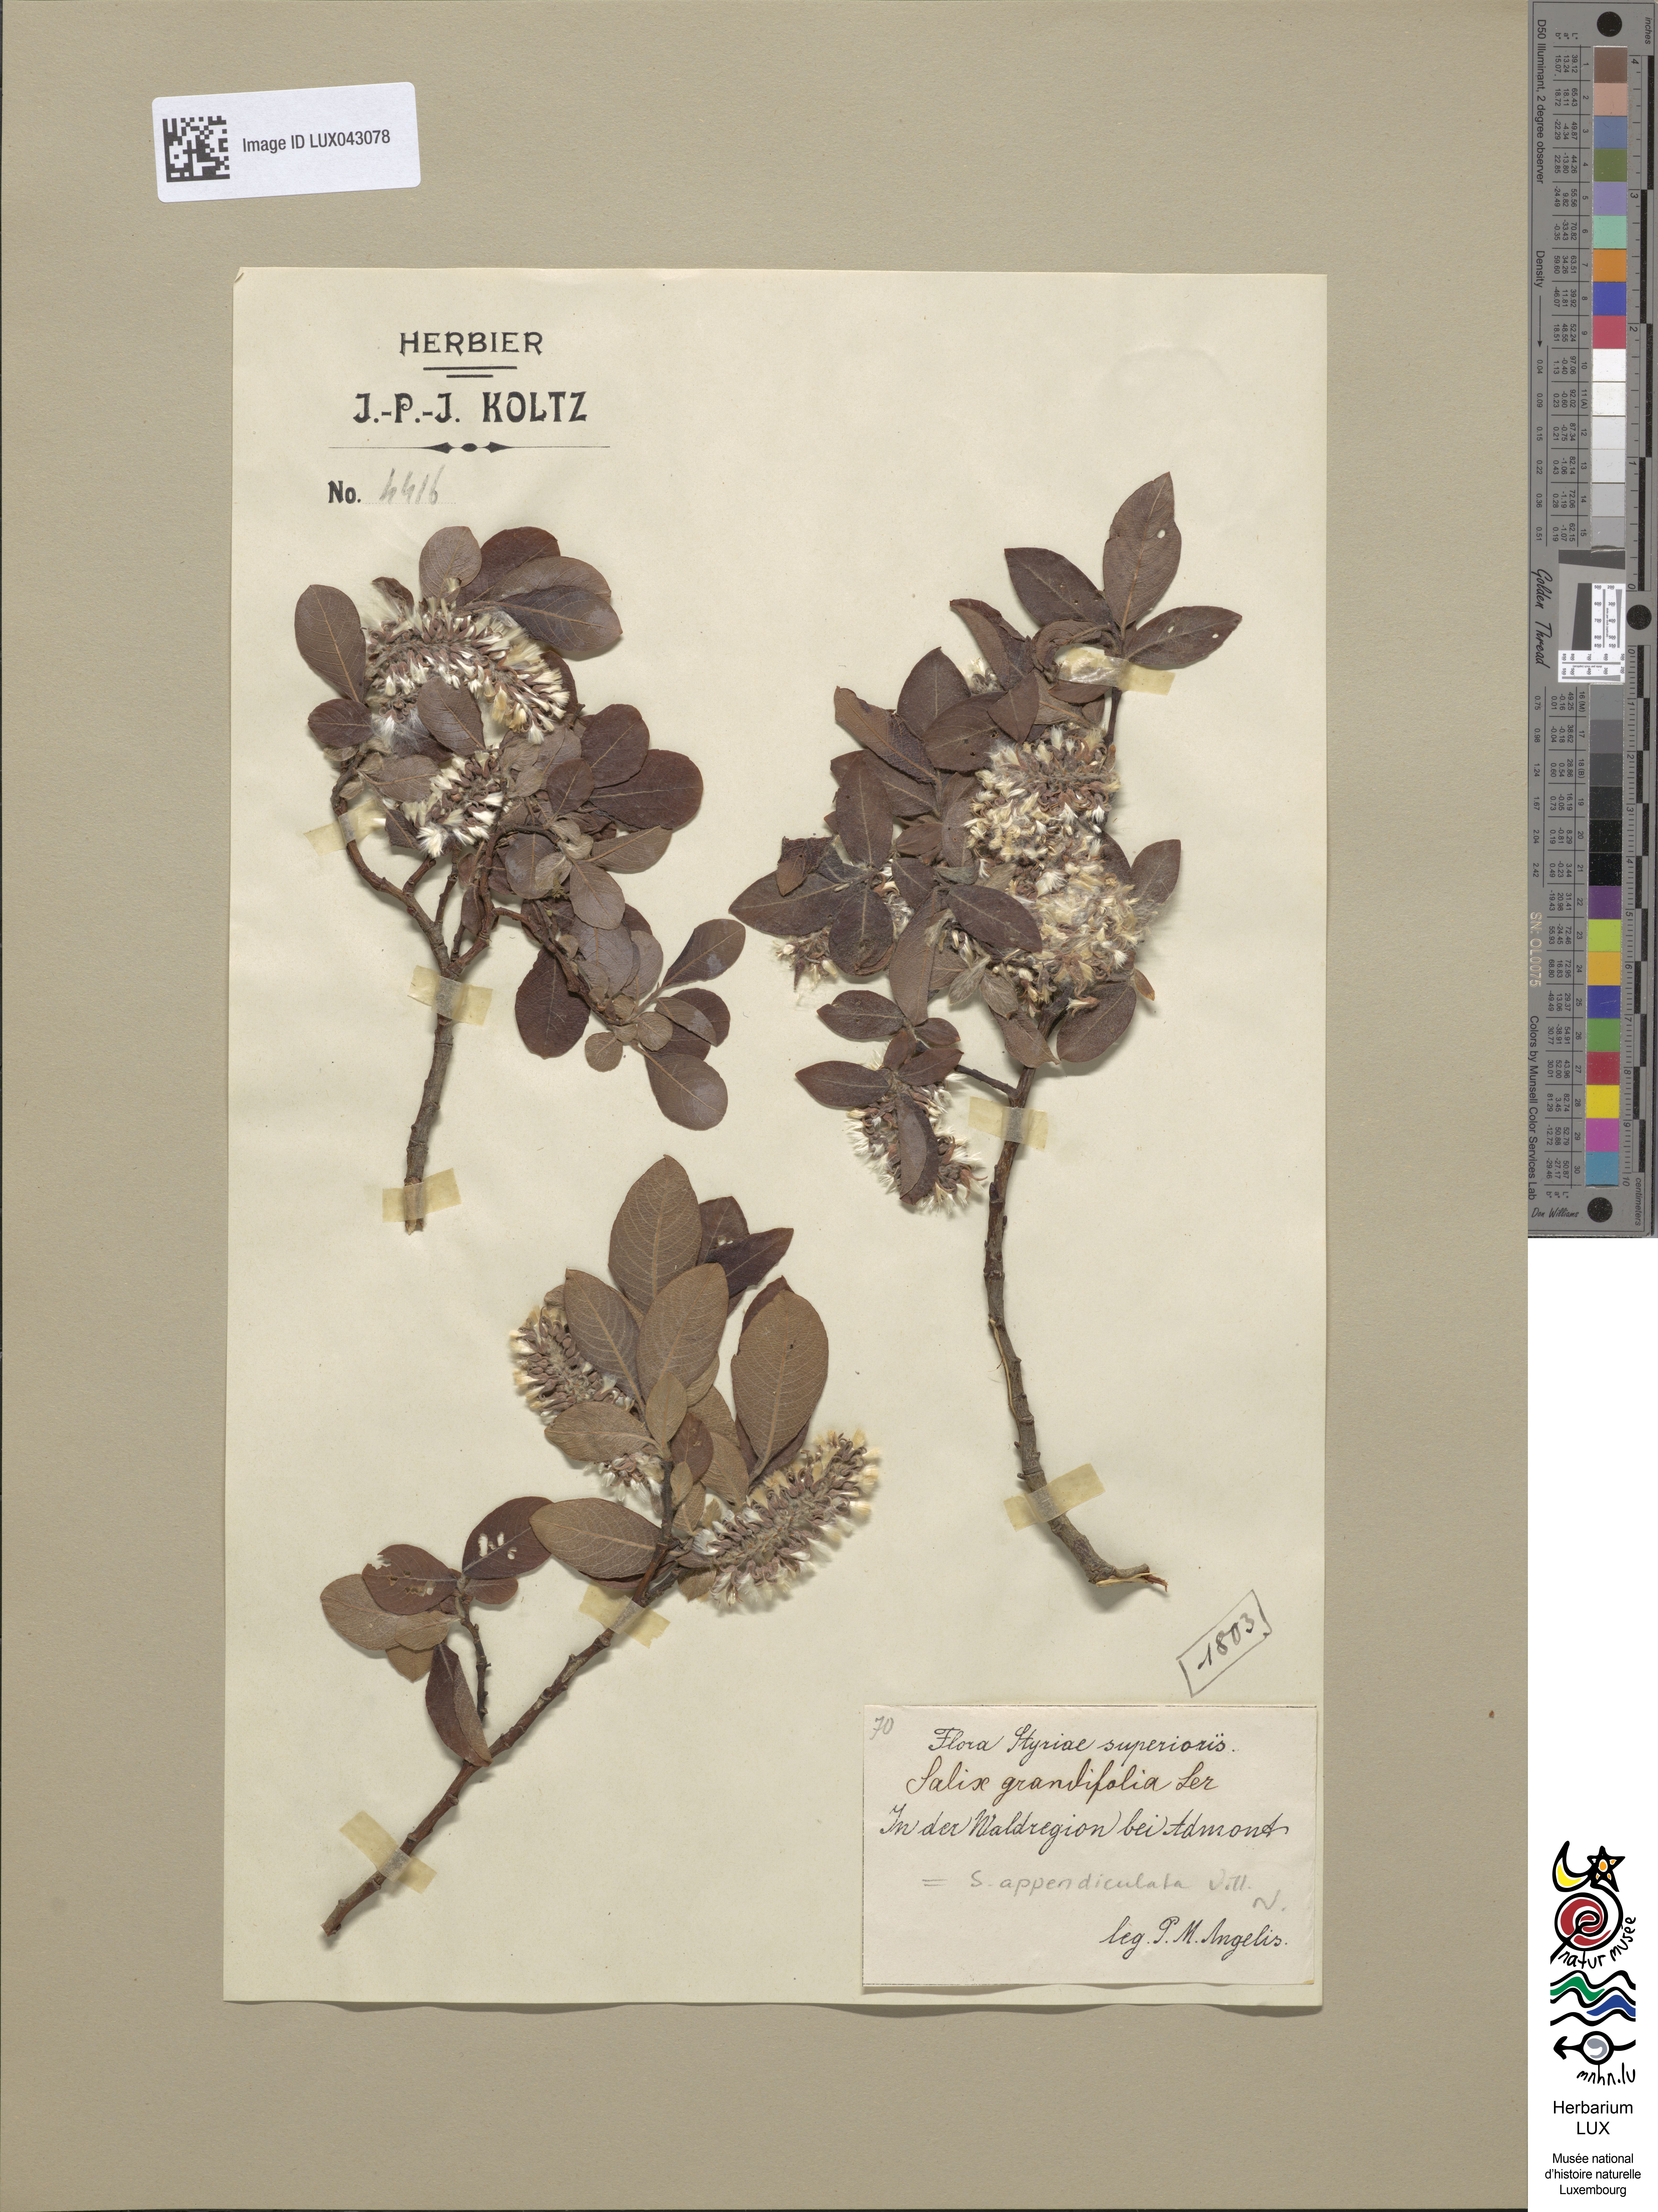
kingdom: Plantae
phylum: Tracheophyta
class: Magnoliopsida
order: Malpighiales
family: Salicaceae
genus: Salix
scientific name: Salix appendiculata
